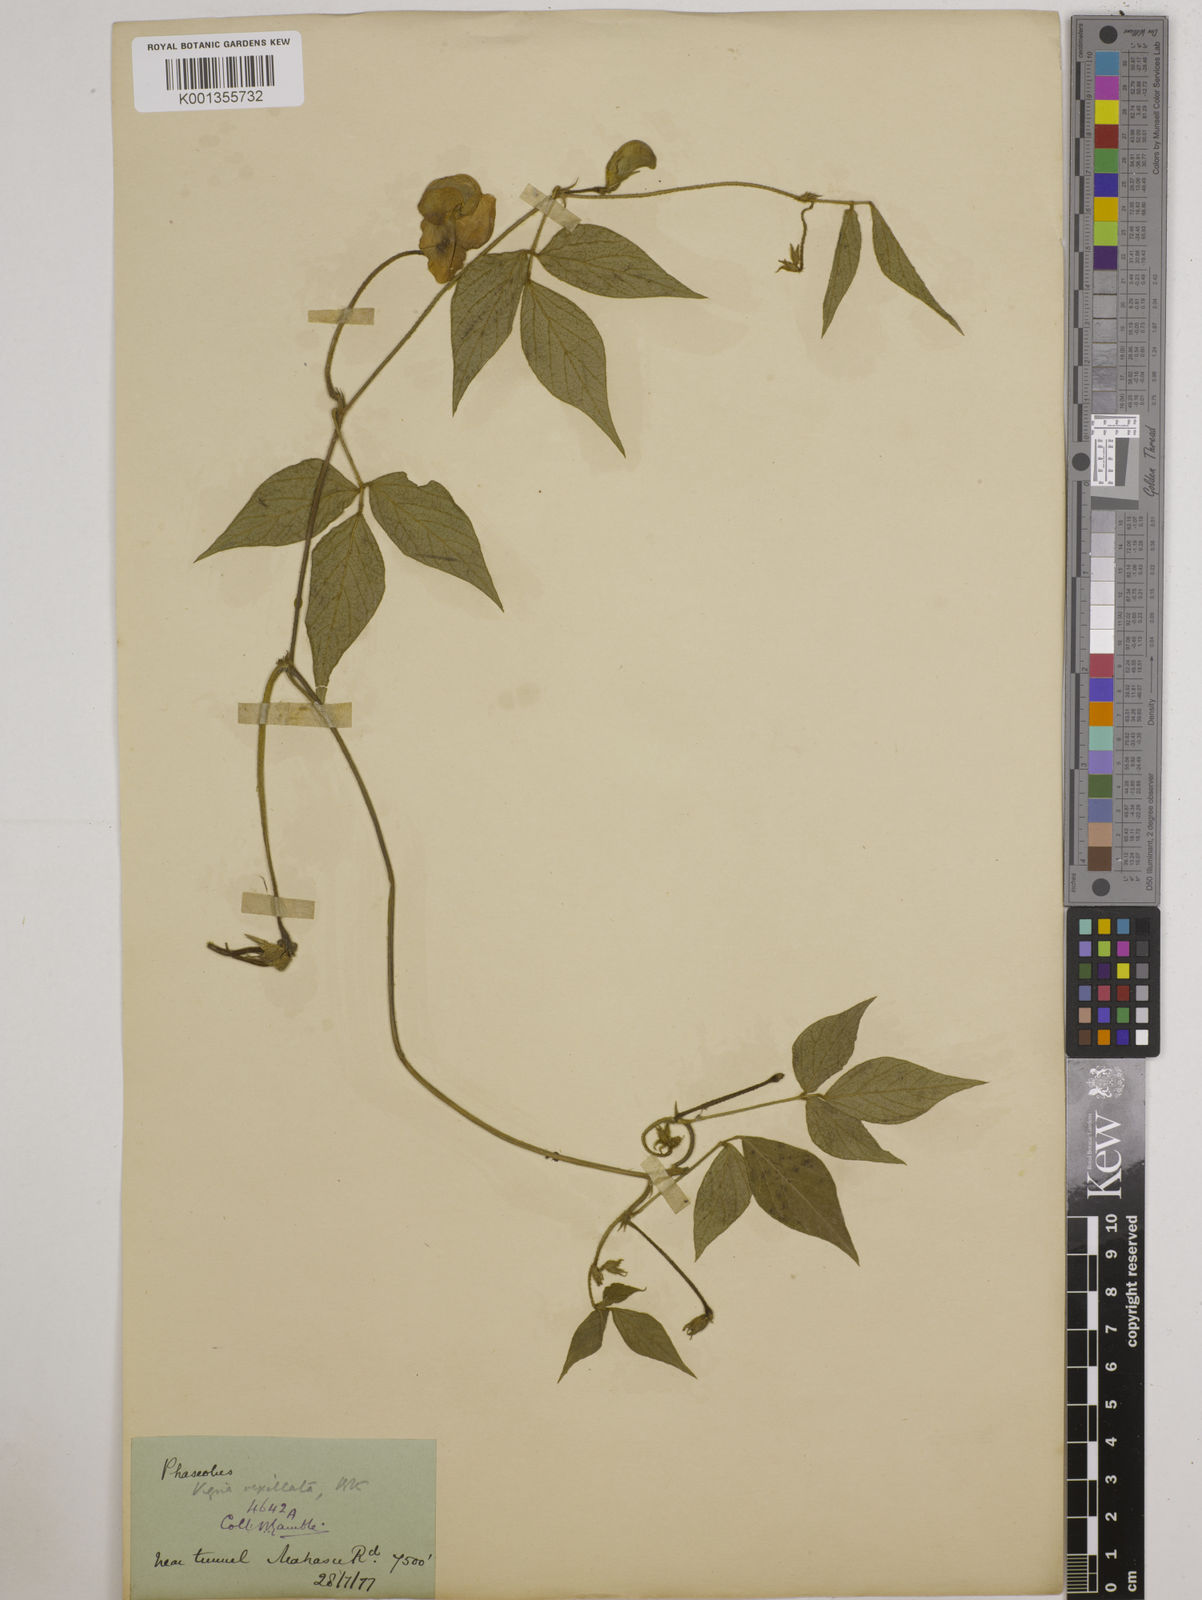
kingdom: Plantae
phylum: Tracheophyta
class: Magnoliopsida
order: Fabales
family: Fabaceae
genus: Vigna
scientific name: Vigna vexillata
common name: Zombi pea
